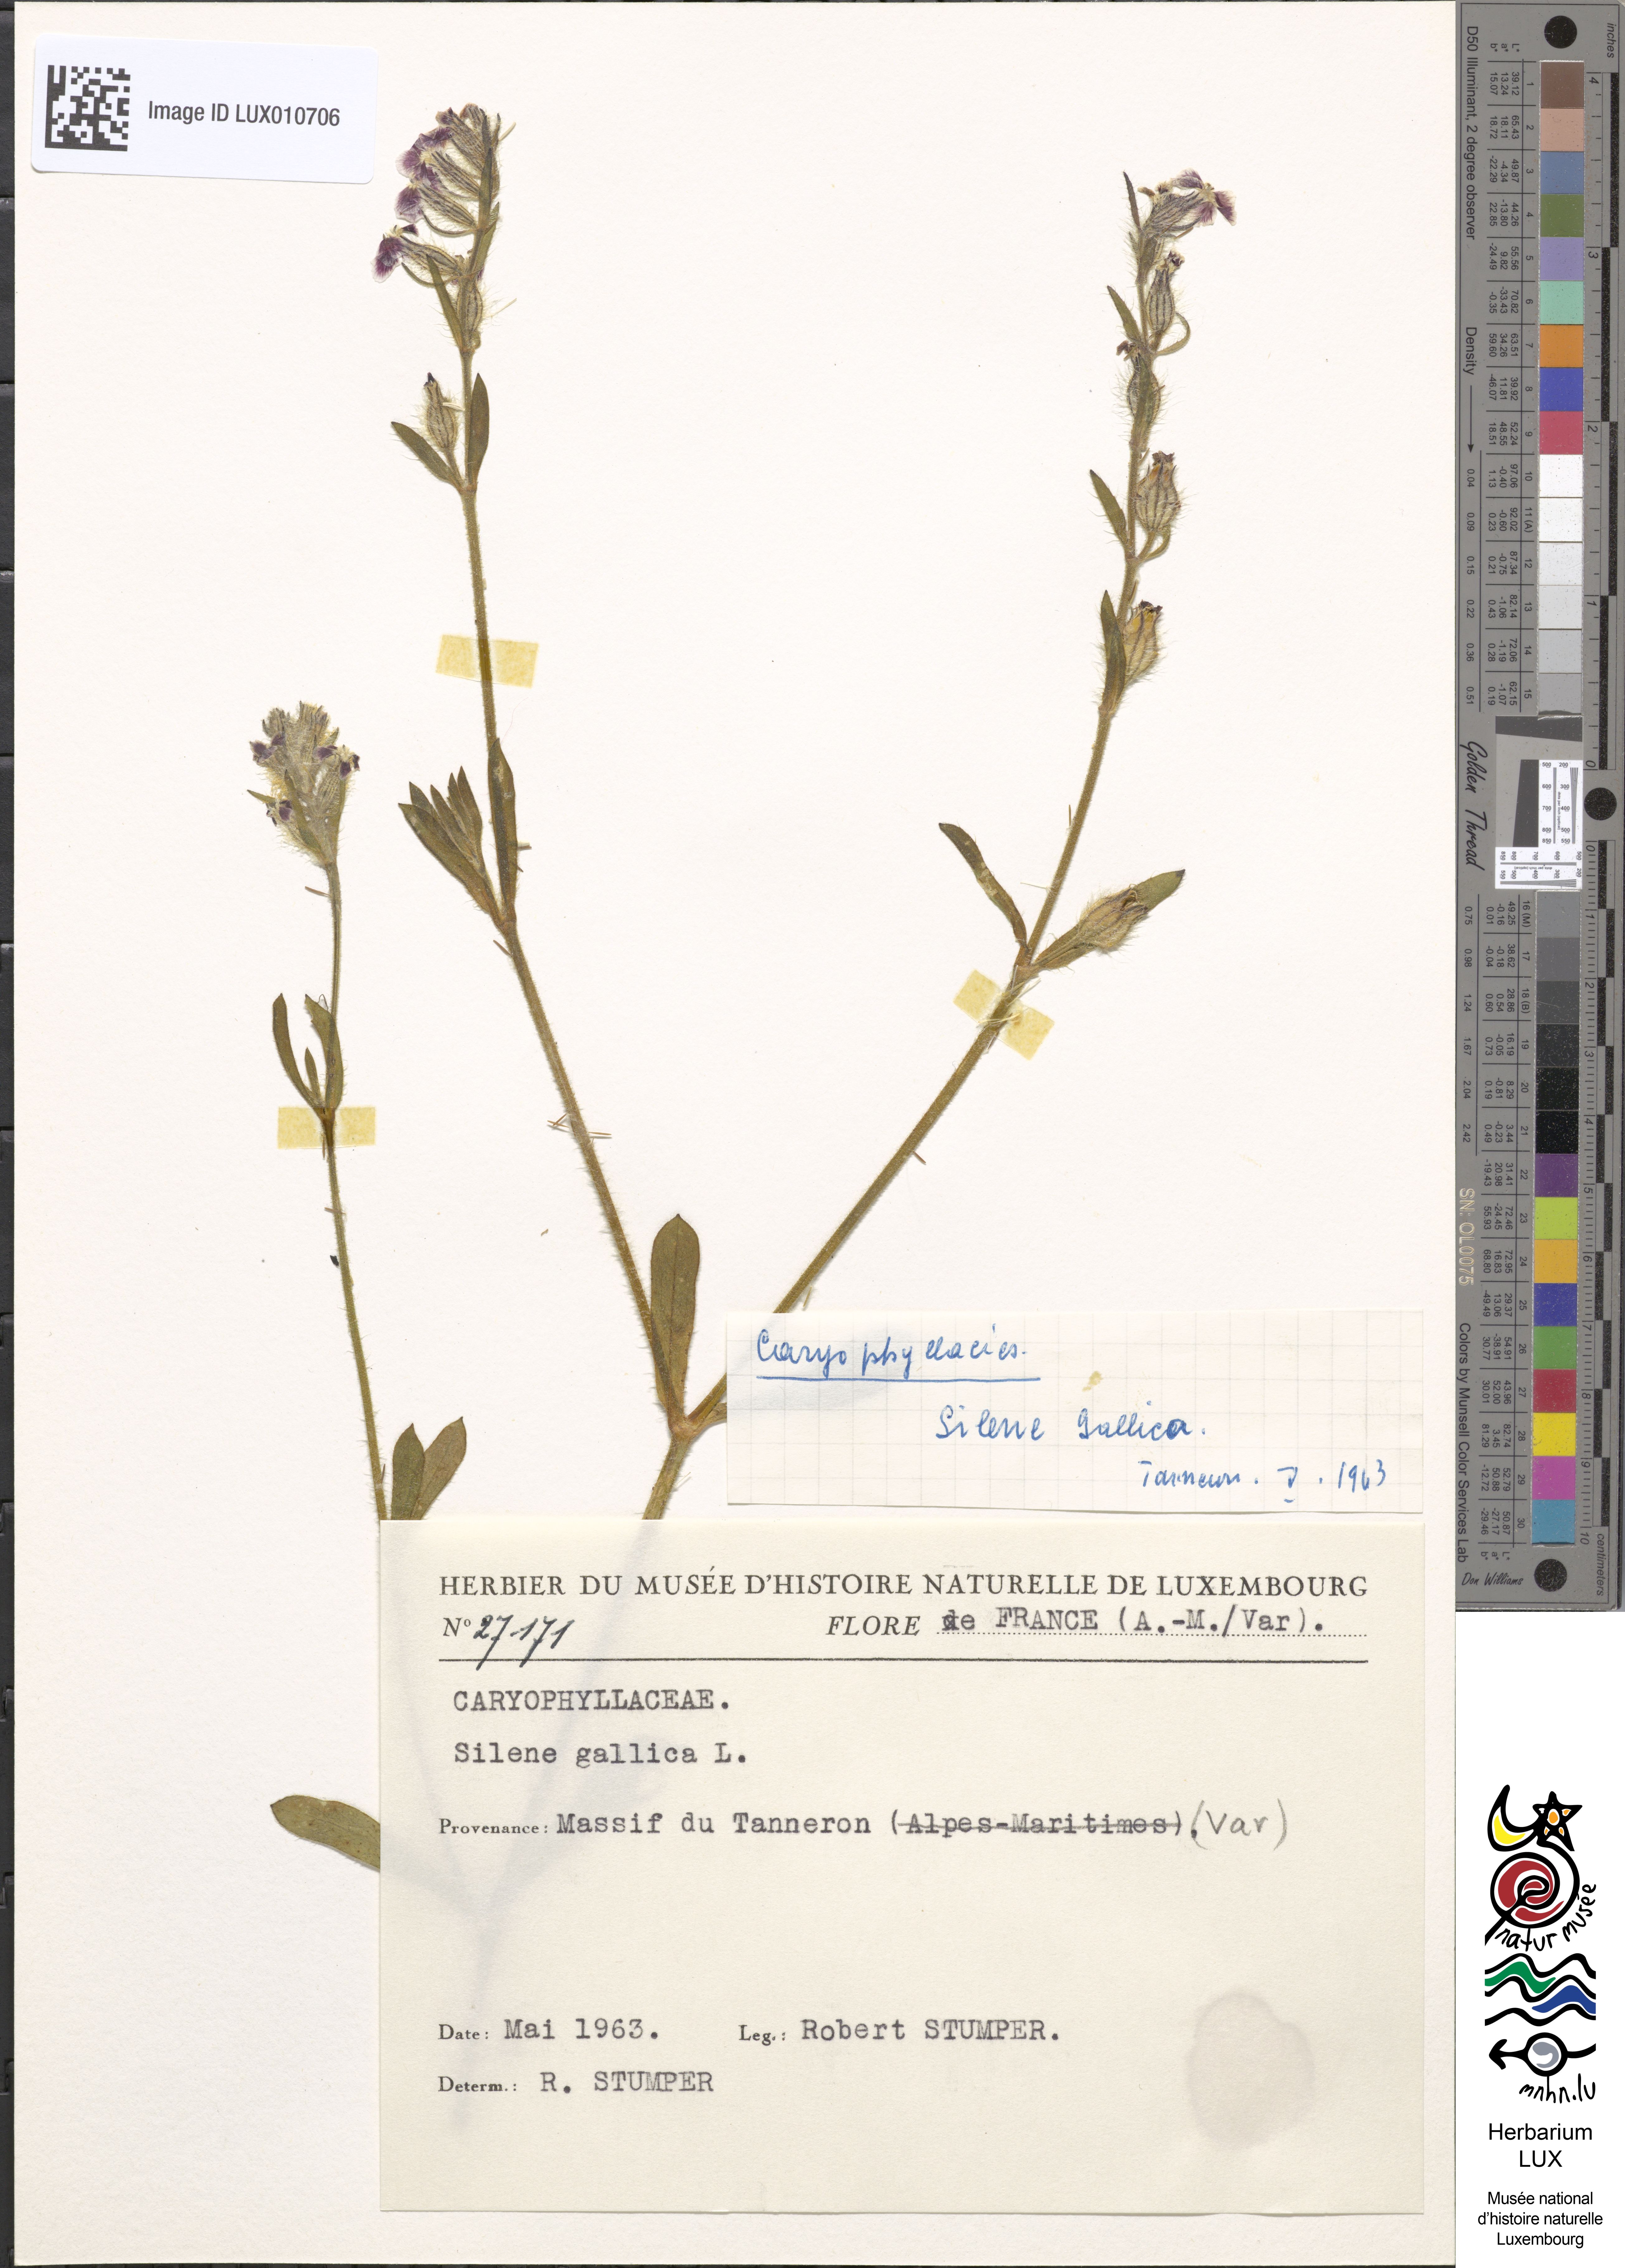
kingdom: Plantae
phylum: Tracheophyta
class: Magnoliopsida
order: Caryophyllales
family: Caryophyllaceae
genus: Silene
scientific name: Silene gallica
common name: Small-flowered catchfly
